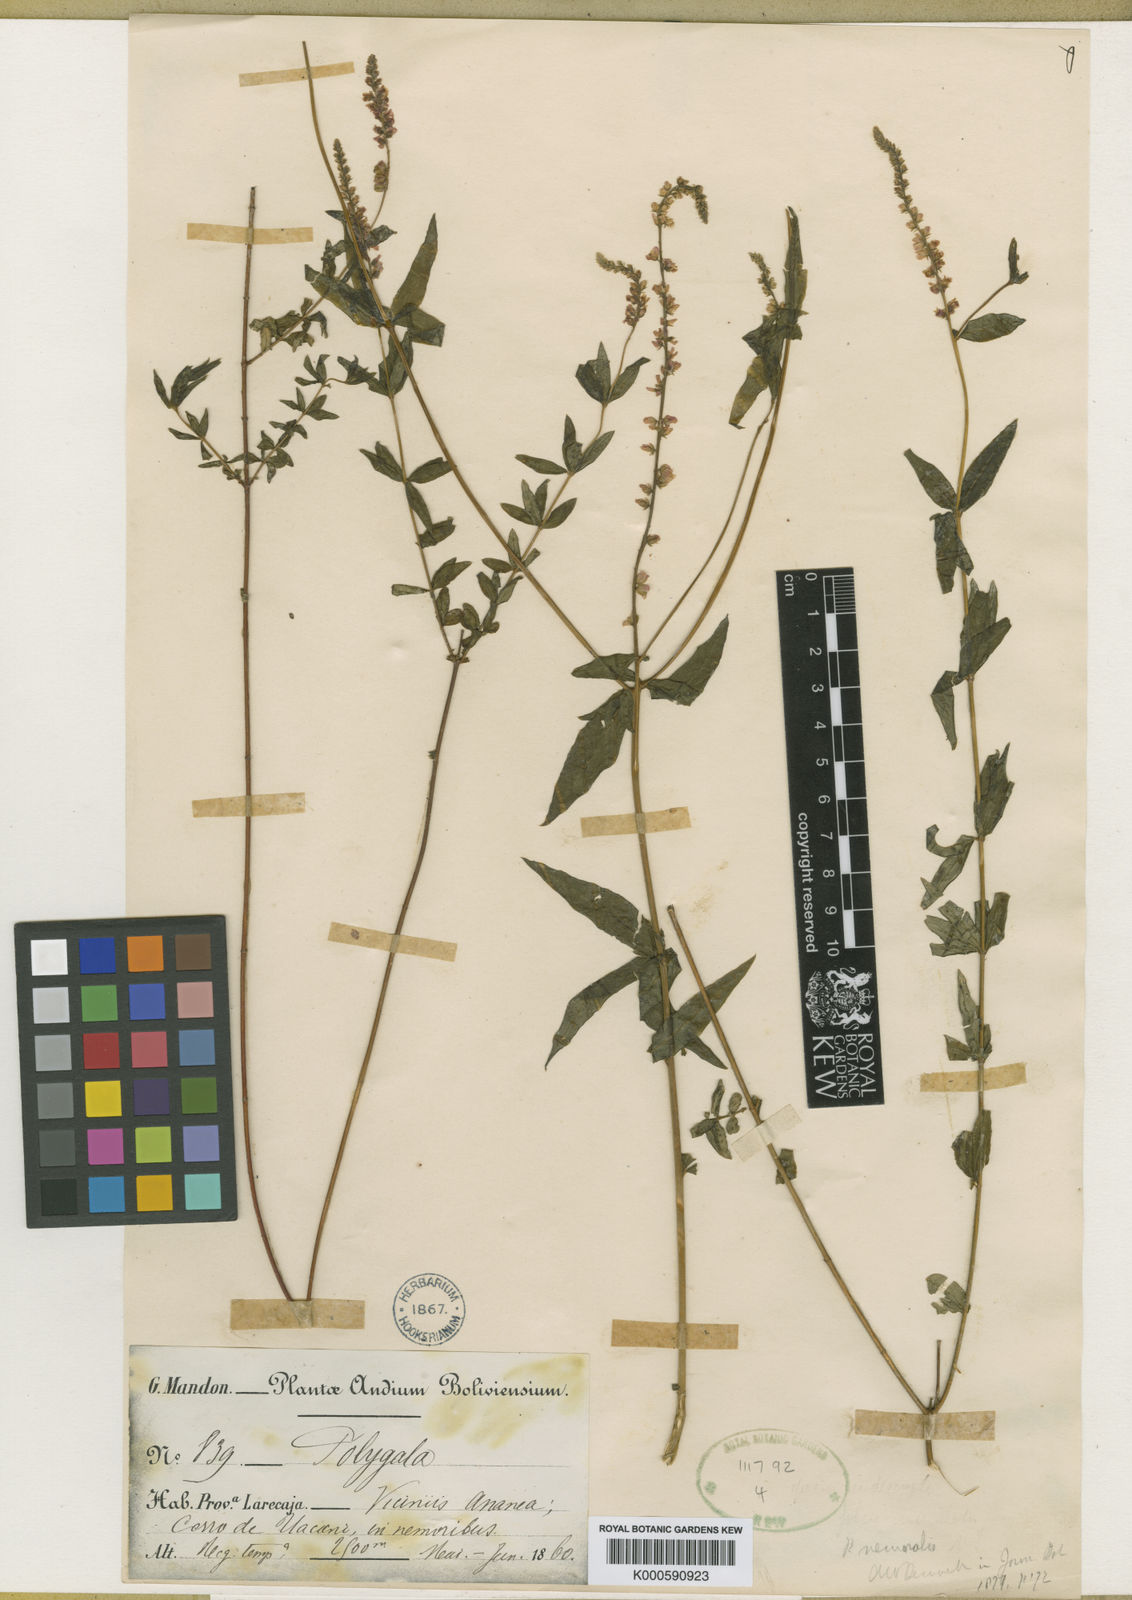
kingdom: Plantae
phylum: Tracheophyta
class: Magnoliopsida
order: Fabales
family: Polygalaceae
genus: Polygala
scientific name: Polygala nemoralis
